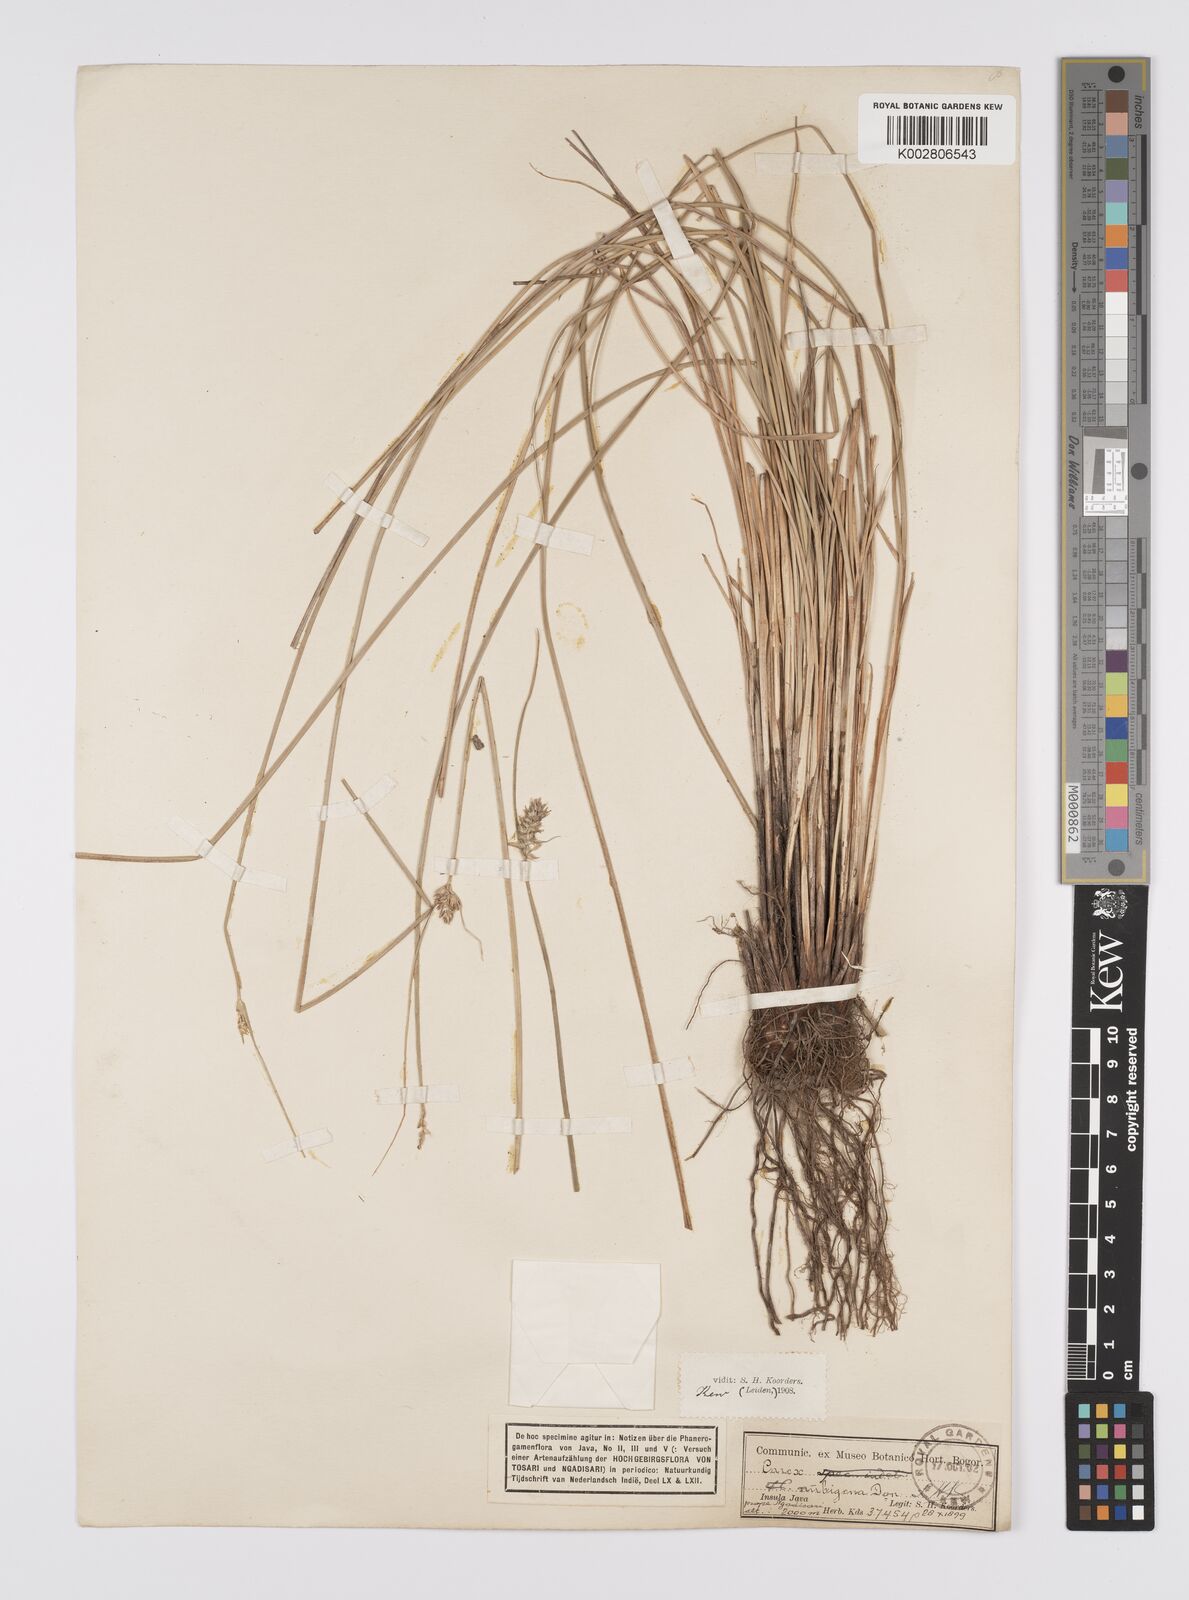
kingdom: Plantae
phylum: Tracheophyta
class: Liliopsida
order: Poales
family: Cyperaceae
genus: Carex
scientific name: Carex
